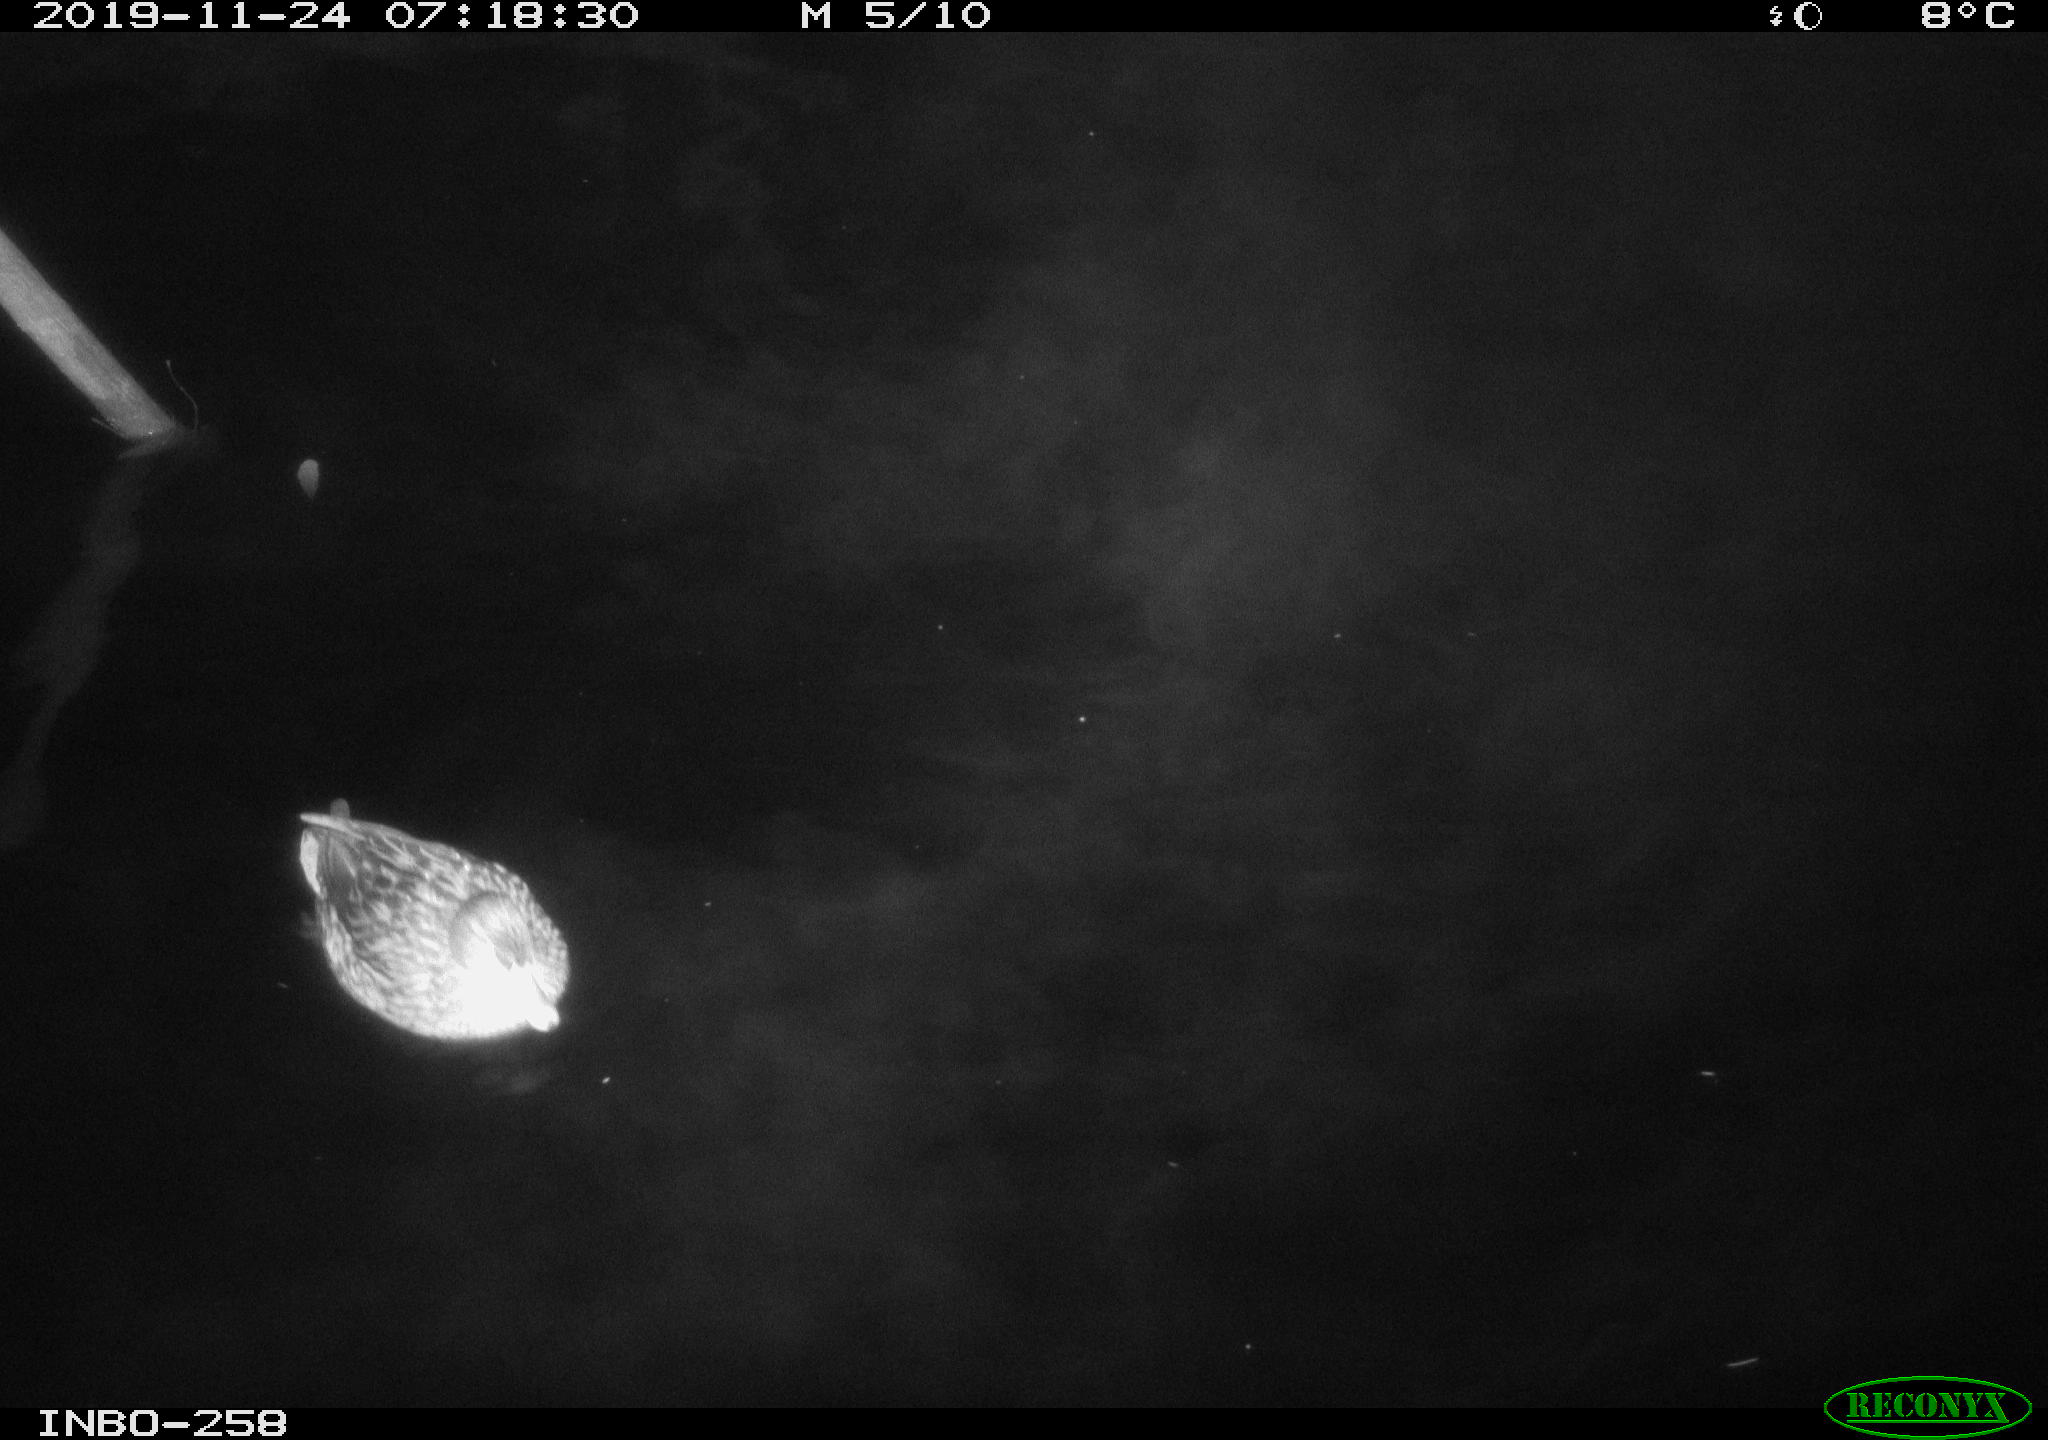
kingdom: Animalia
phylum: Chordata
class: Aves
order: Gruiformes
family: Rallidae
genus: Gallinula
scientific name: Gallinula chloropus
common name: Common moorhen
